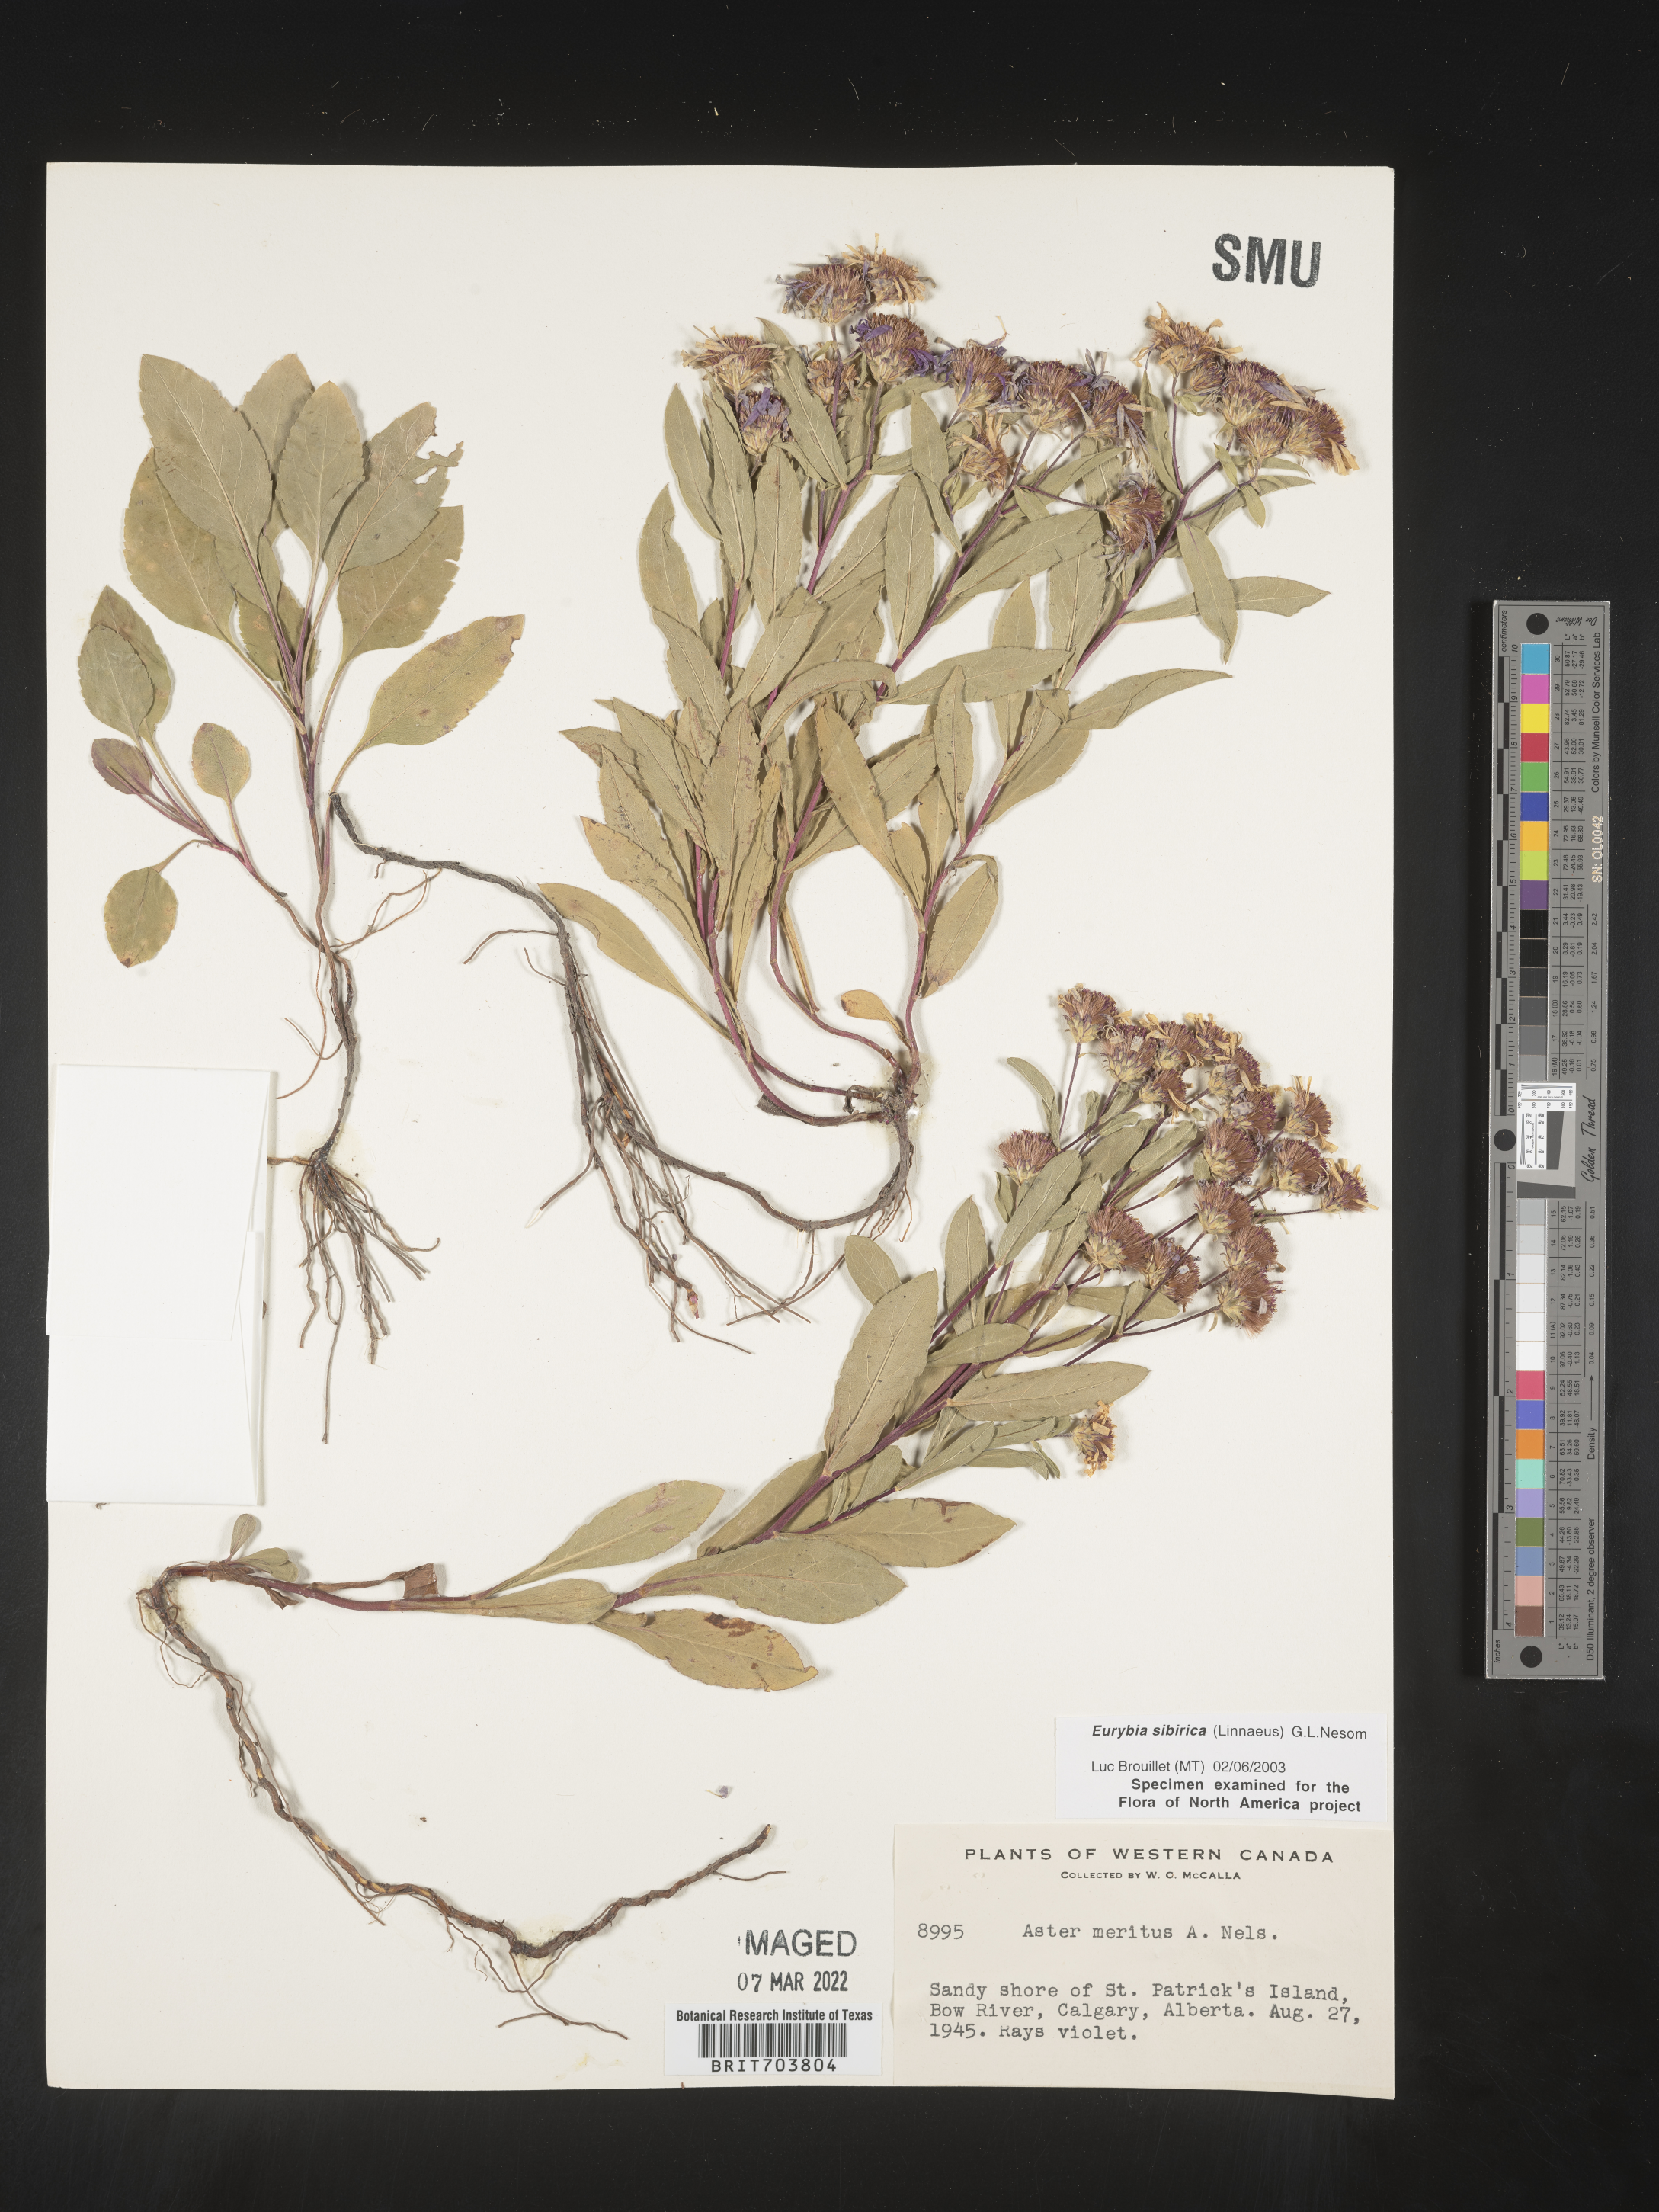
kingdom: Plantae
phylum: Tracheophyta
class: Magnoliopsida
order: Asterales
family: Asteraceae
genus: Eurybia
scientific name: Eurybia sibirica
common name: Arctic aster
